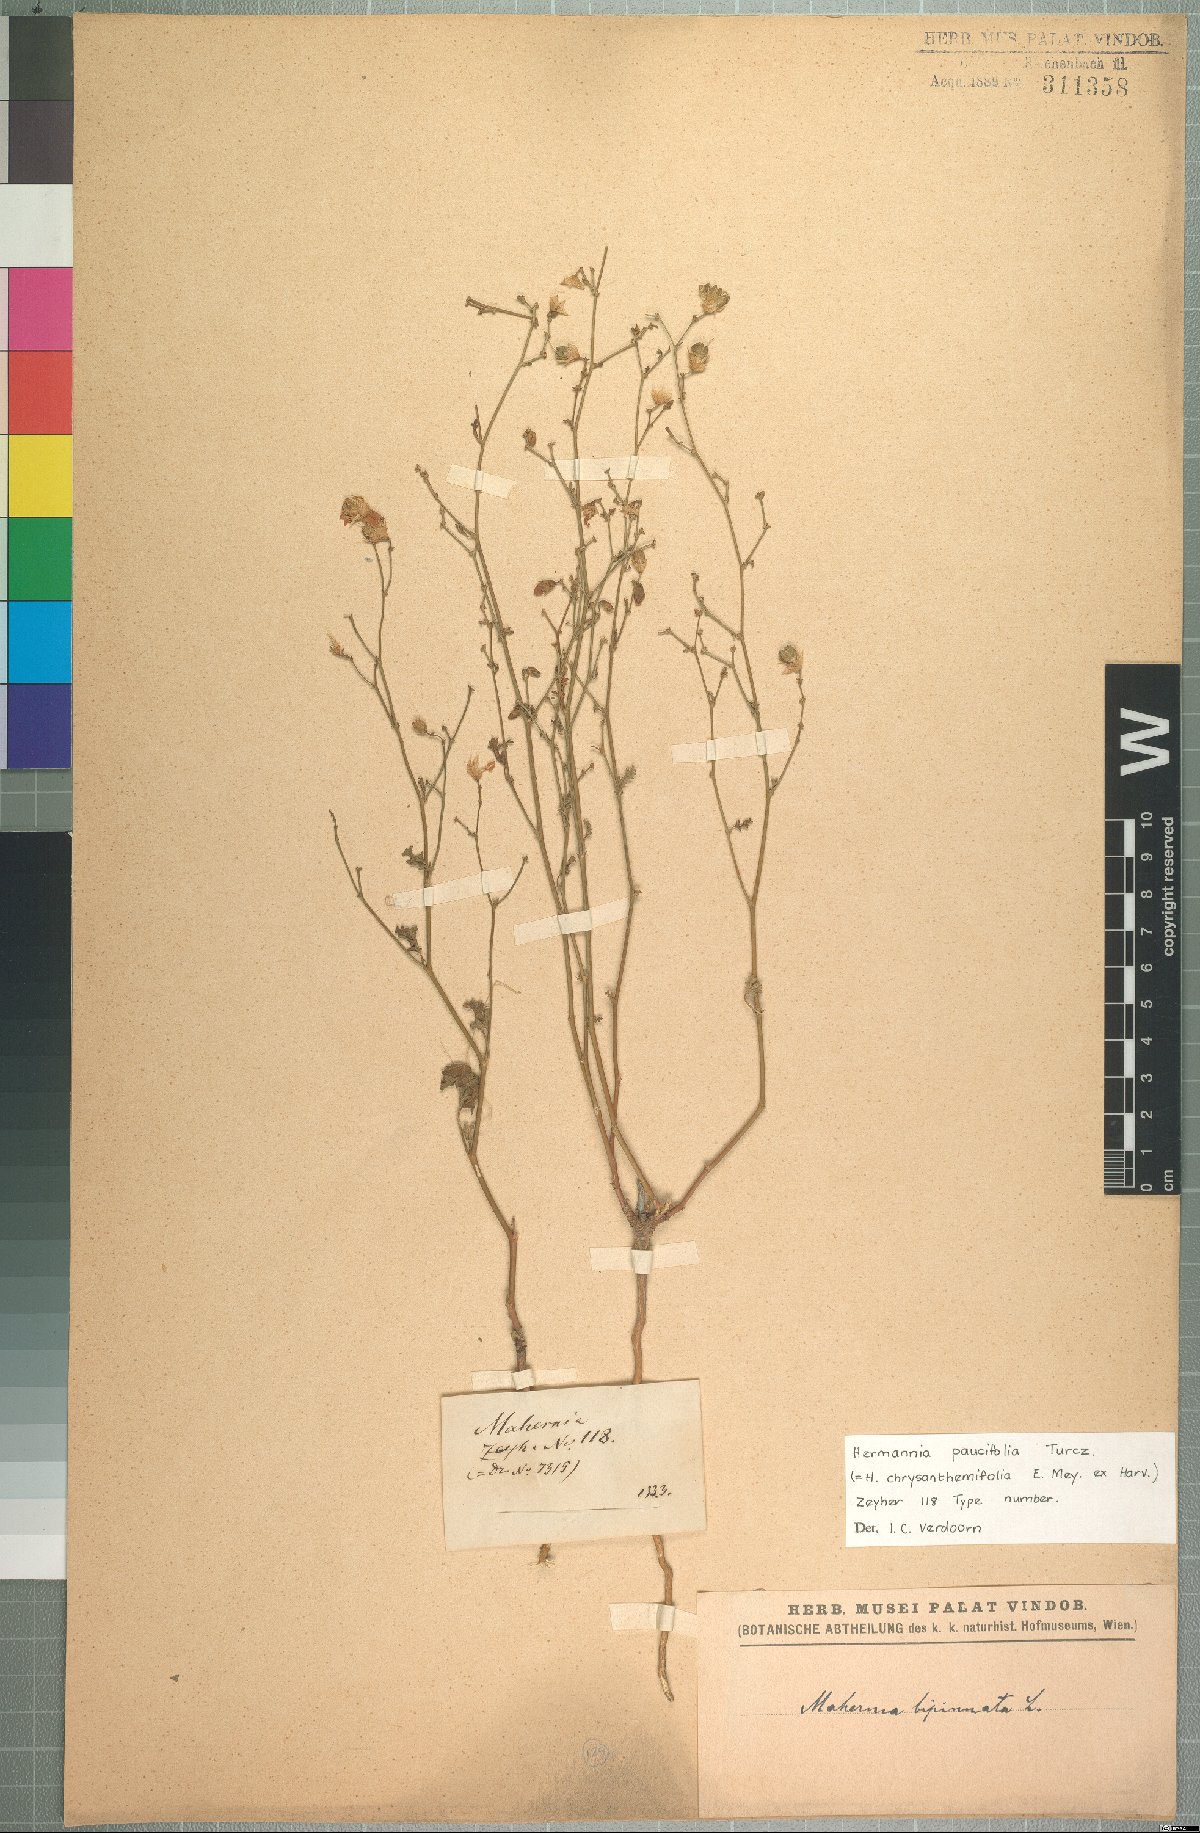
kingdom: Plantae
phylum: Tracheophyta
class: Magnoliopsida
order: Malvales
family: Malvaceae
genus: Hermannia
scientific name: Hermannia paucifolia
